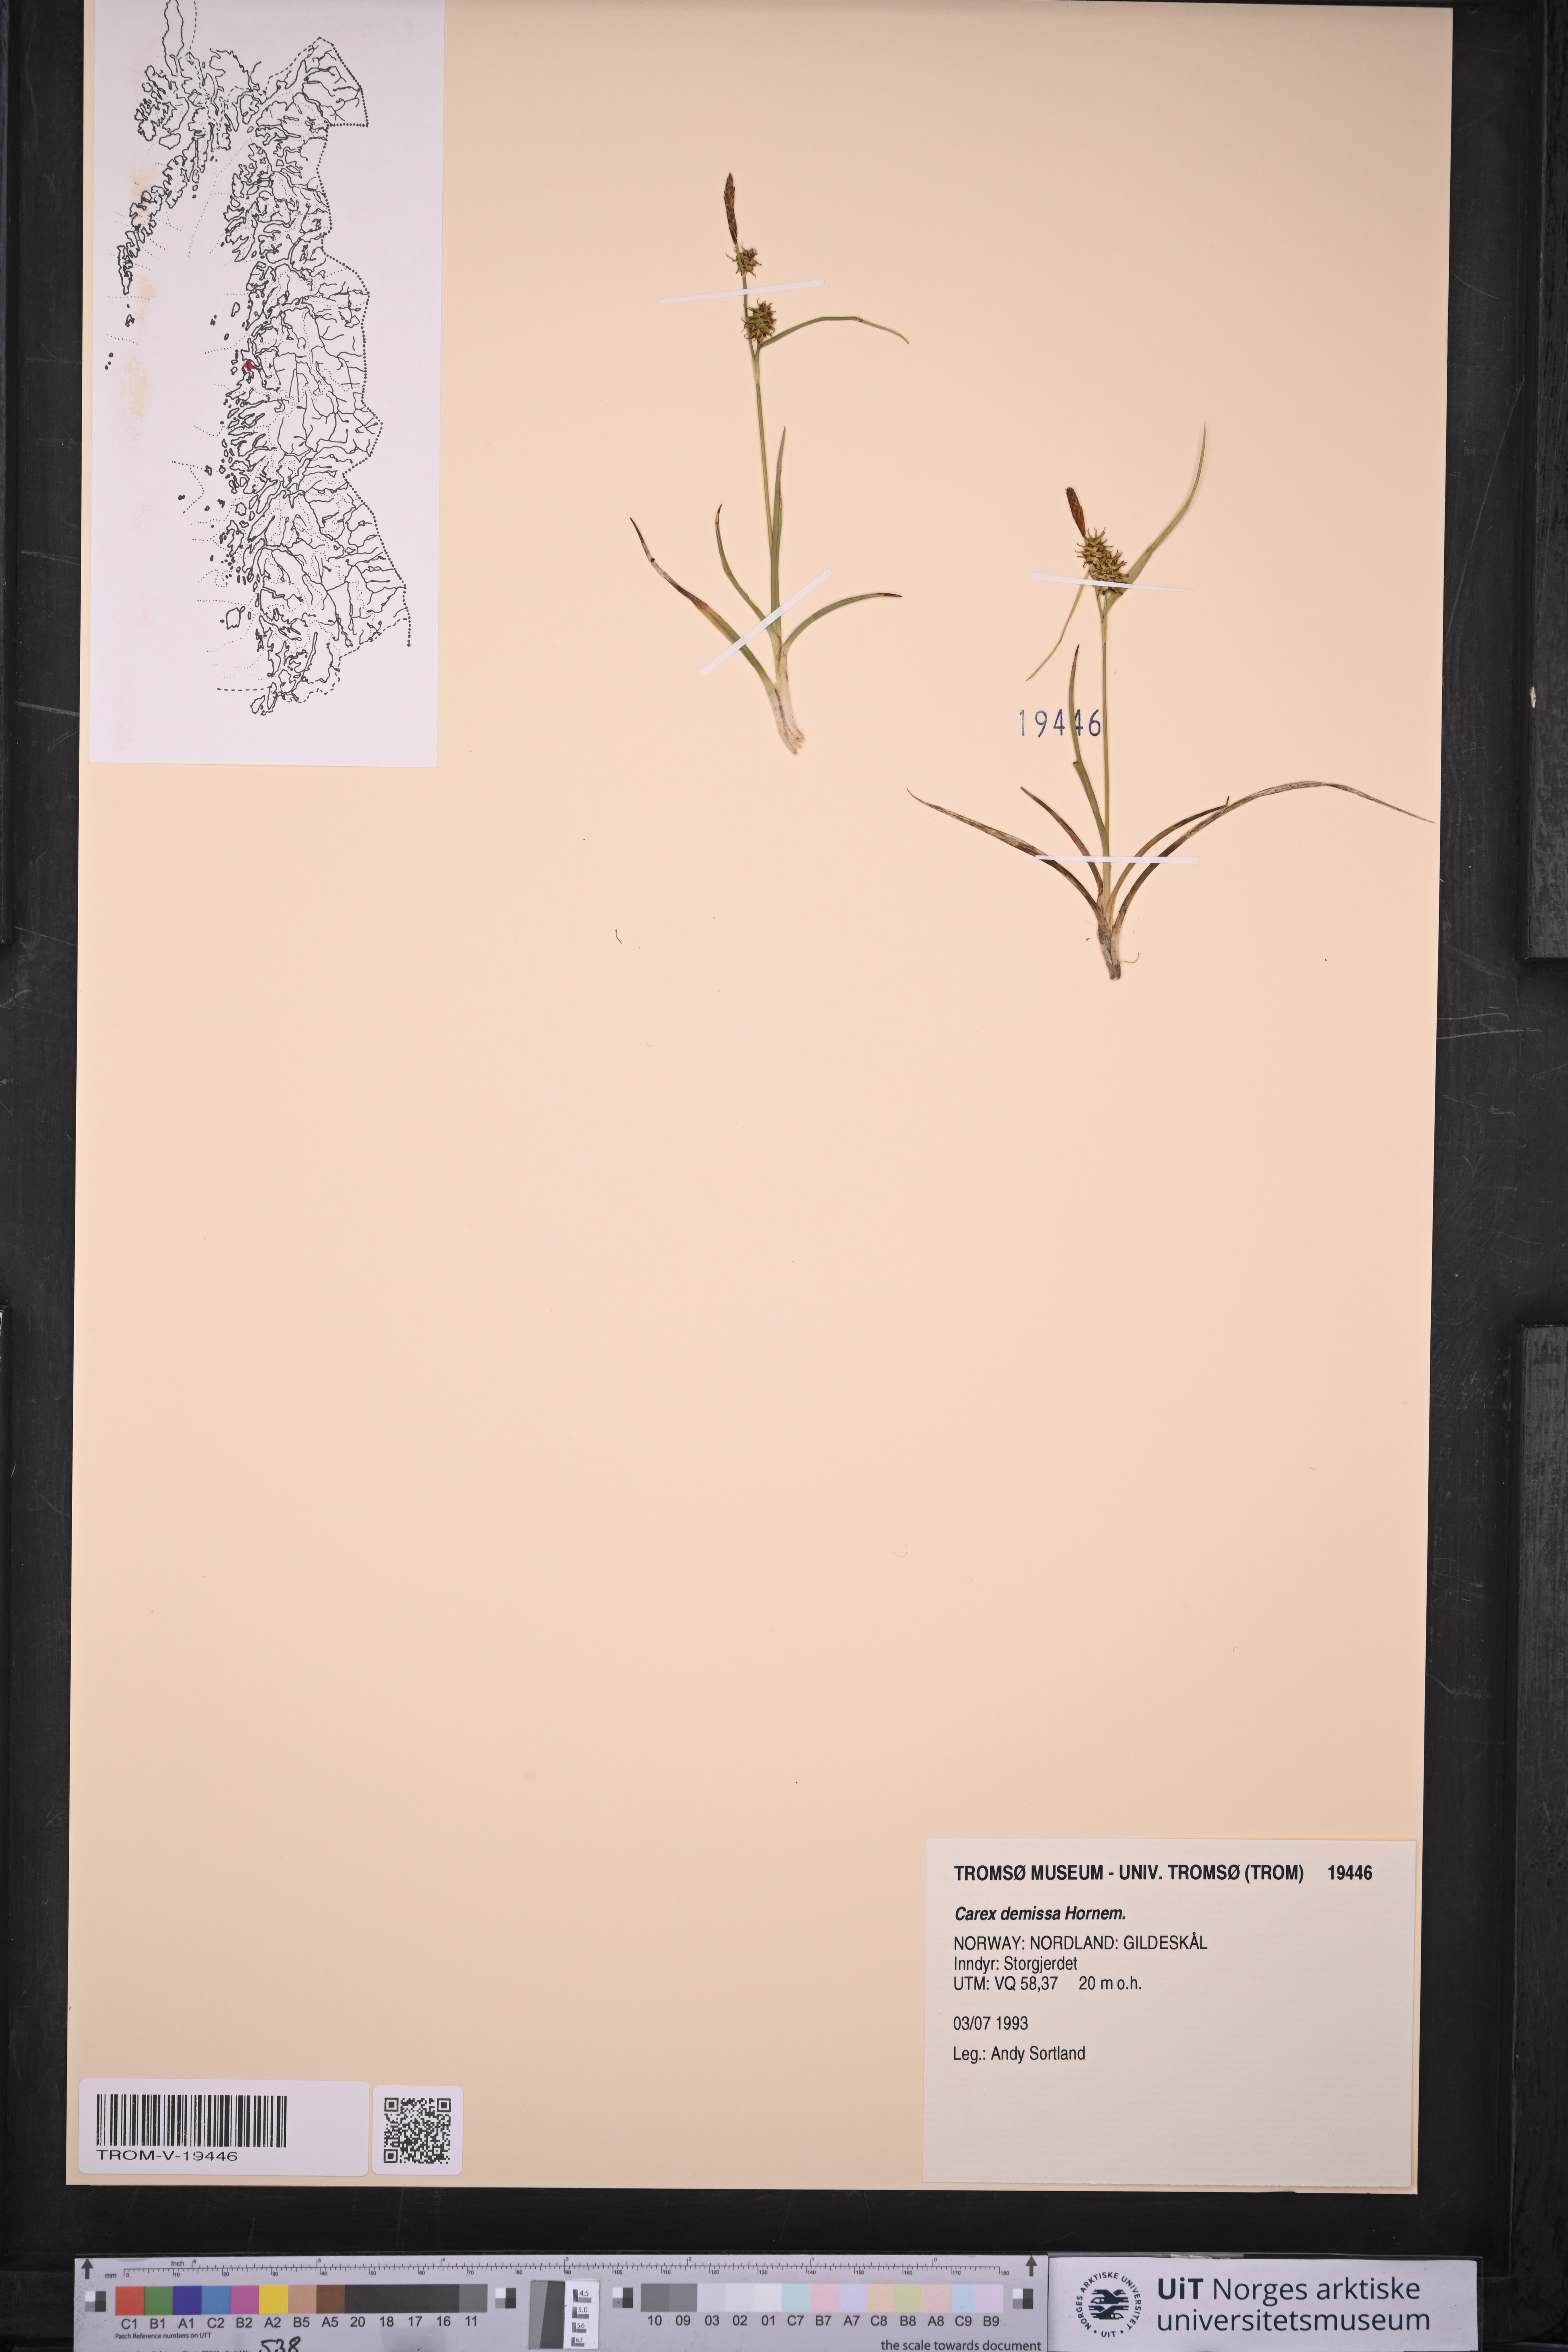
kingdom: Plantae
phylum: Tracheophyta
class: Liliopsida
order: Poales
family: Cyperaceae
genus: Carex
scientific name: Carex demissa
